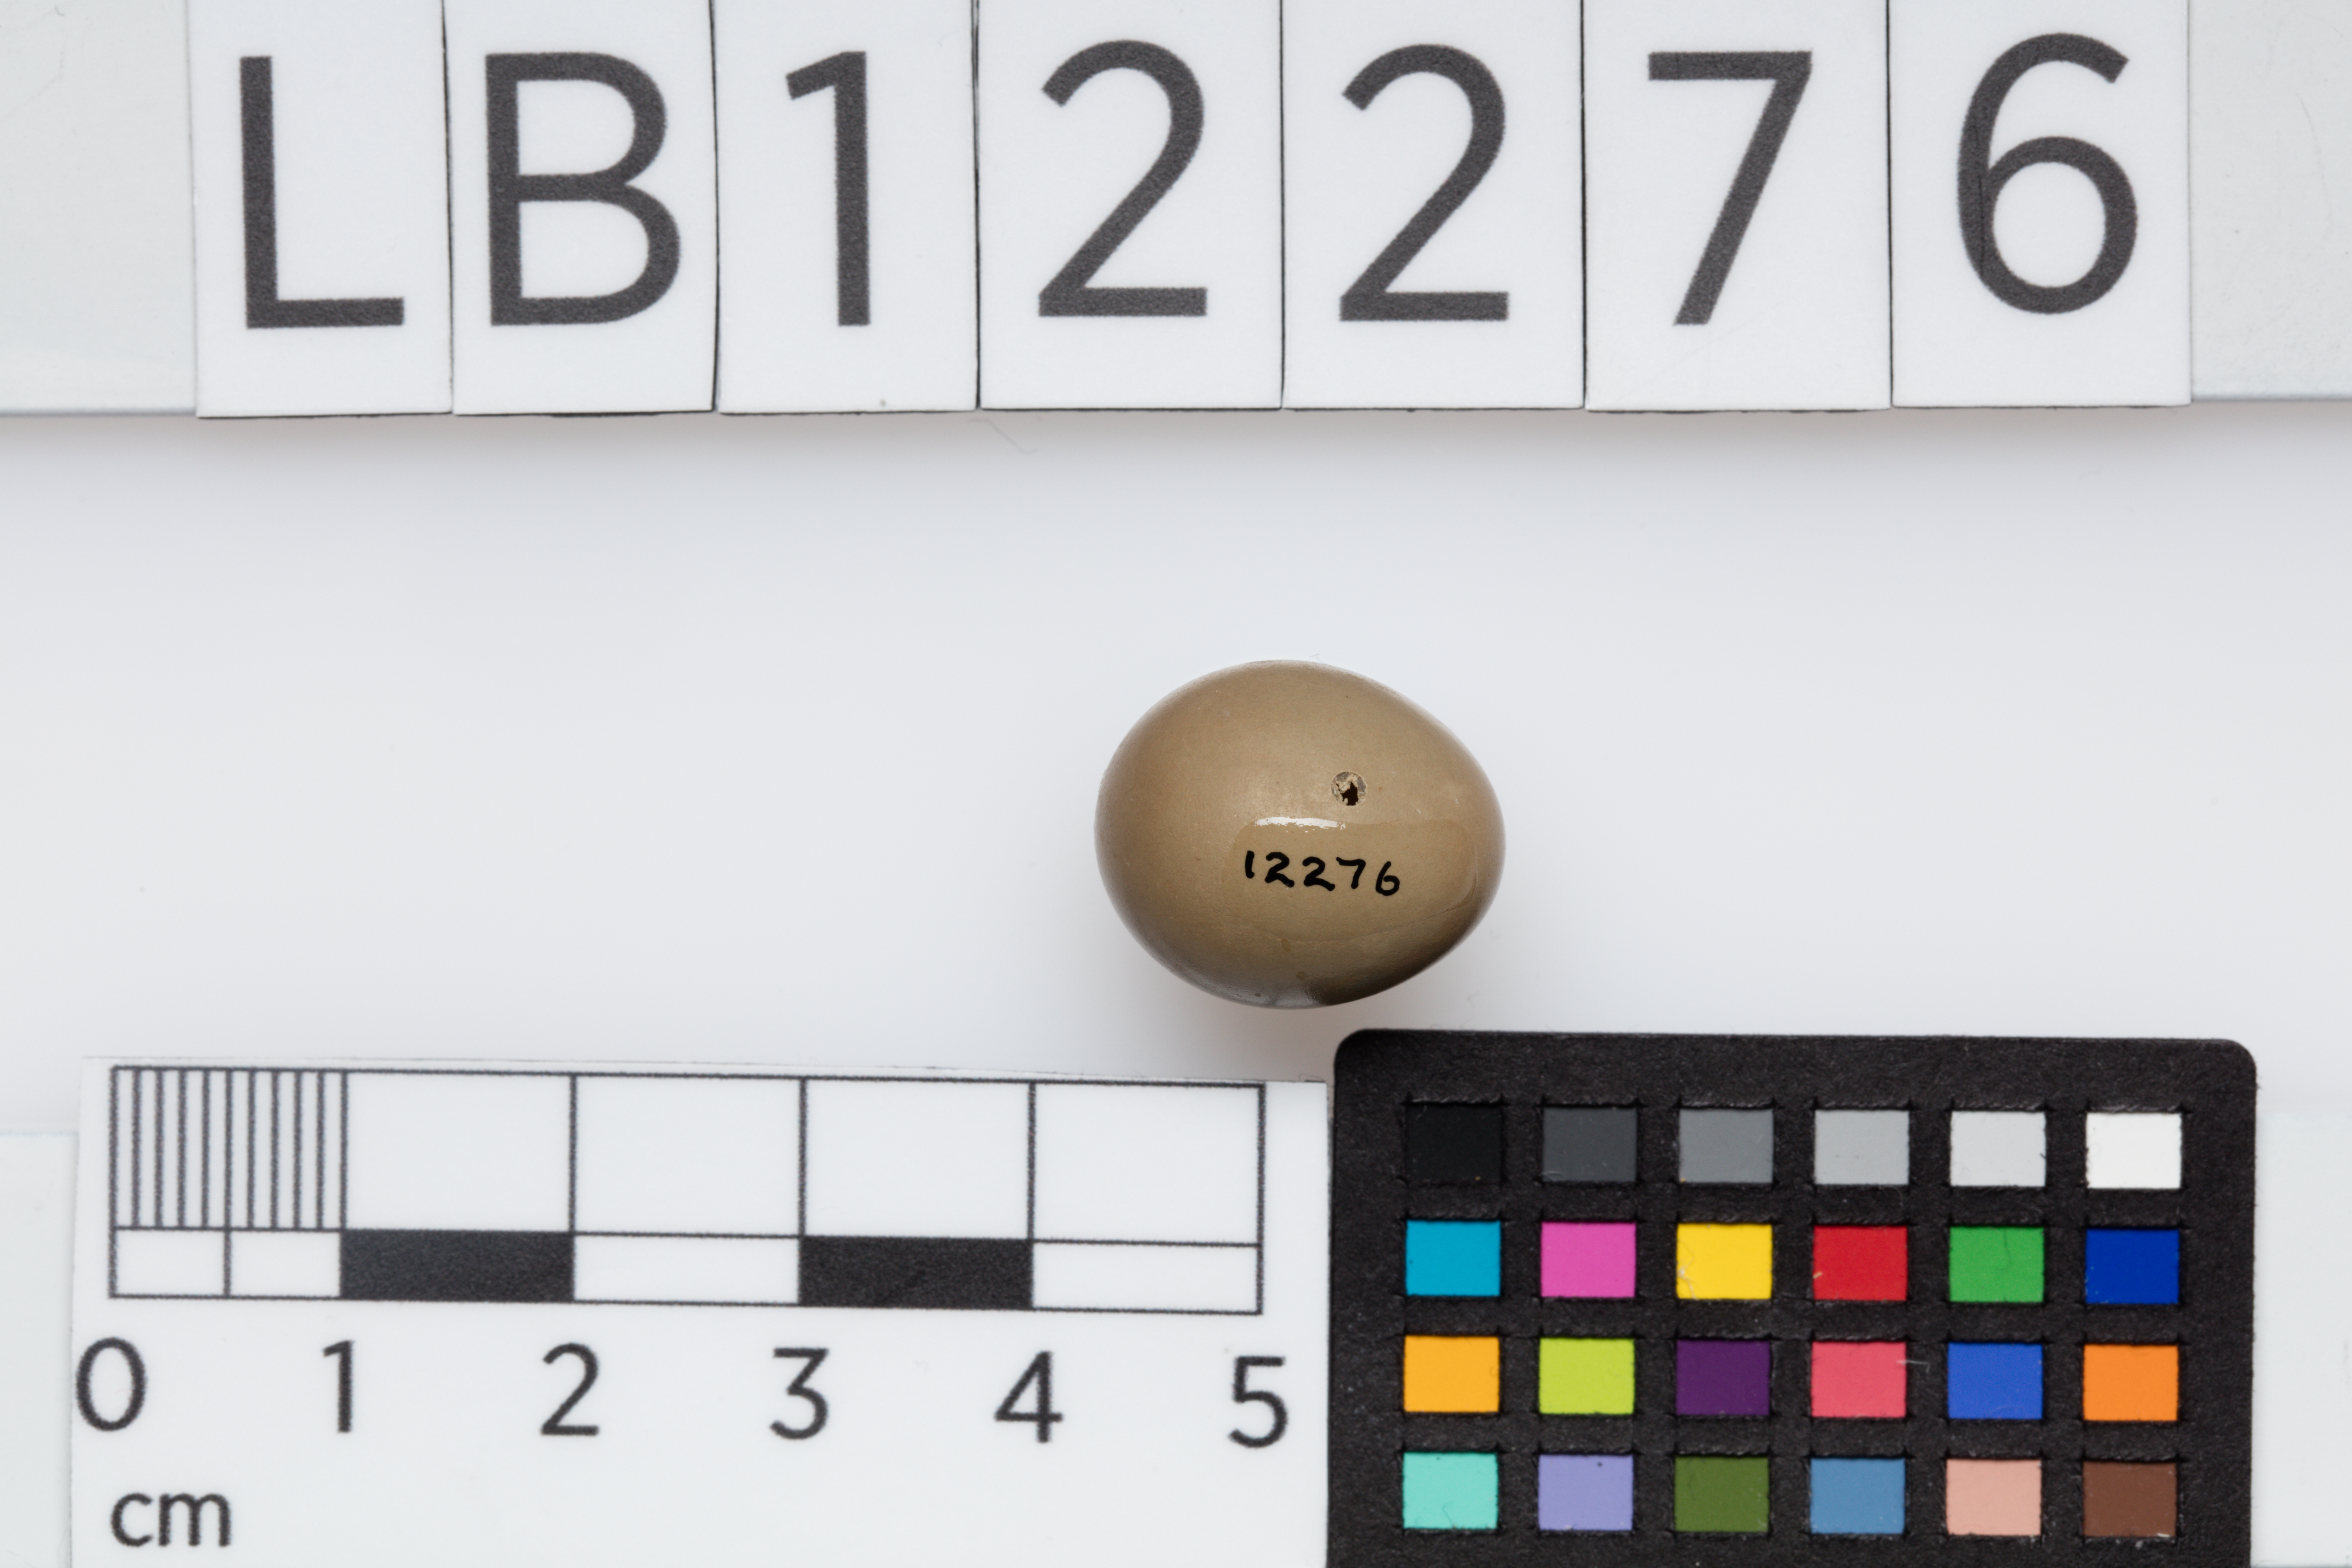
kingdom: Animalia
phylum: Chordata
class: Aves
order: Passeriformes
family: Muscicapidae
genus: Luscinia
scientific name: Luscinia megarhynchos
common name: Common nightingale
